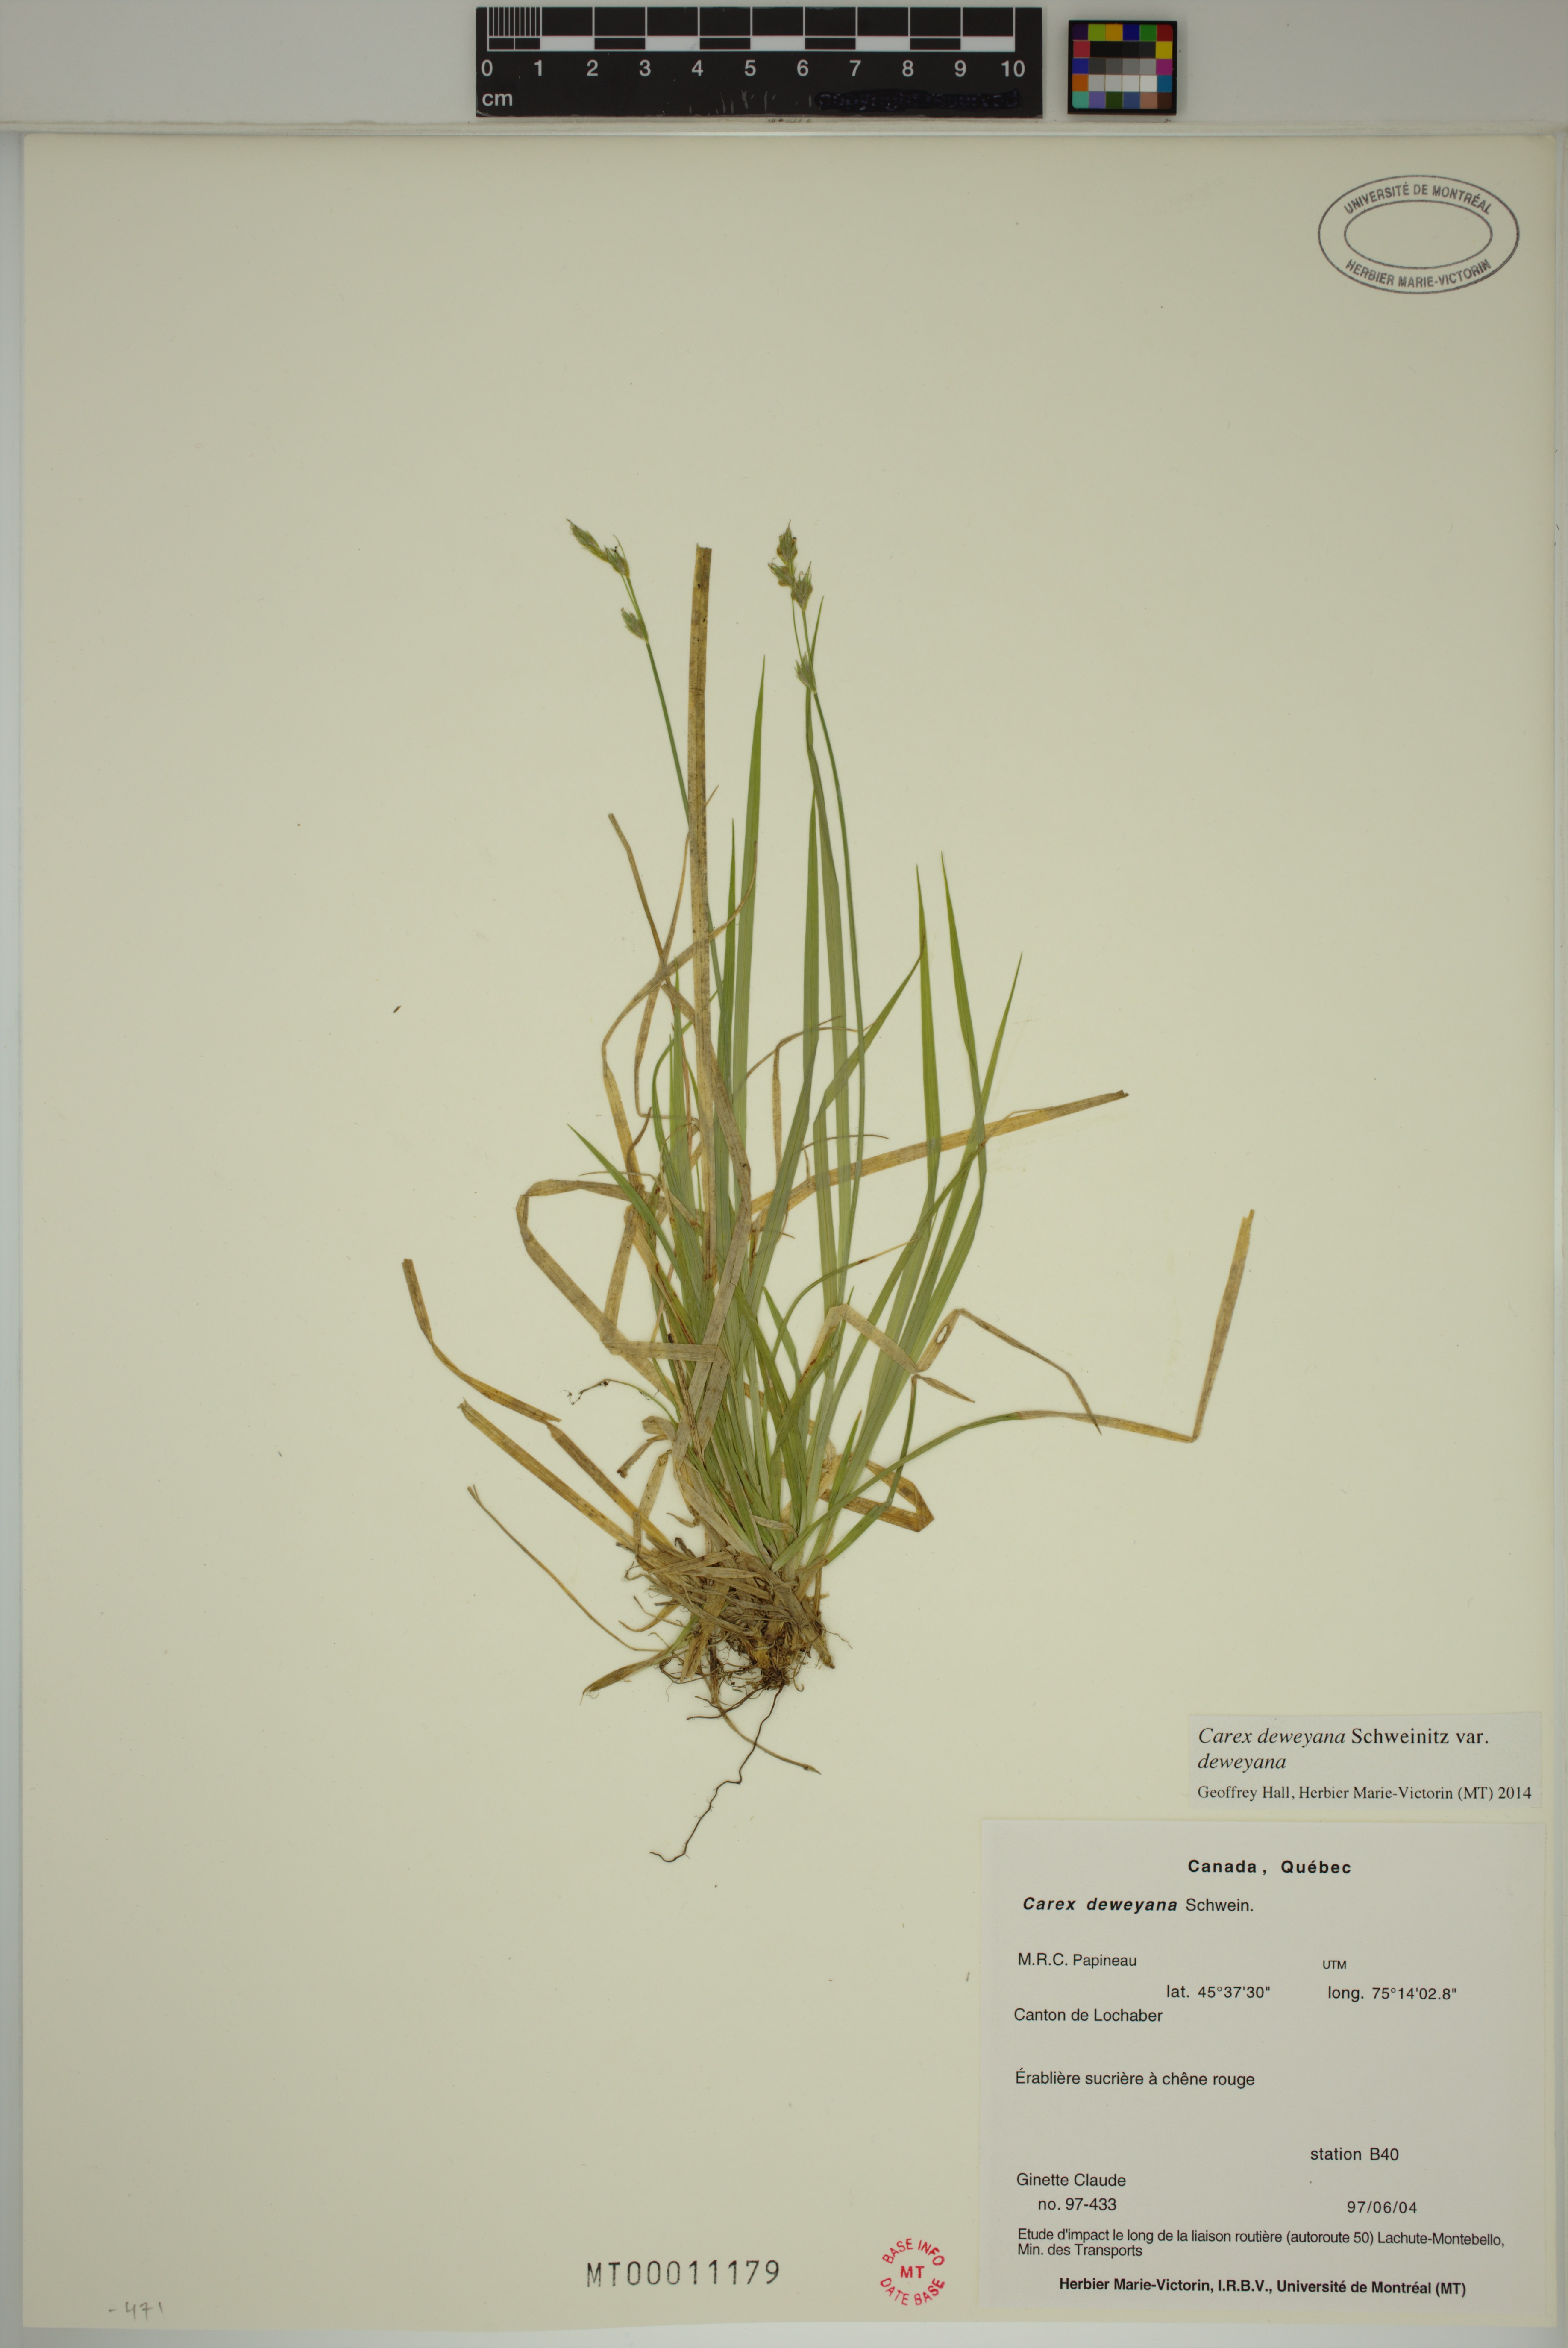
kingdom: Plantae
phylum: Tracheophyta
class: Liliopsida
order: Poales
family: Cyperaceae
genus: Carex
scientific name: Carex deweyana
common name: Dewey's sedge
